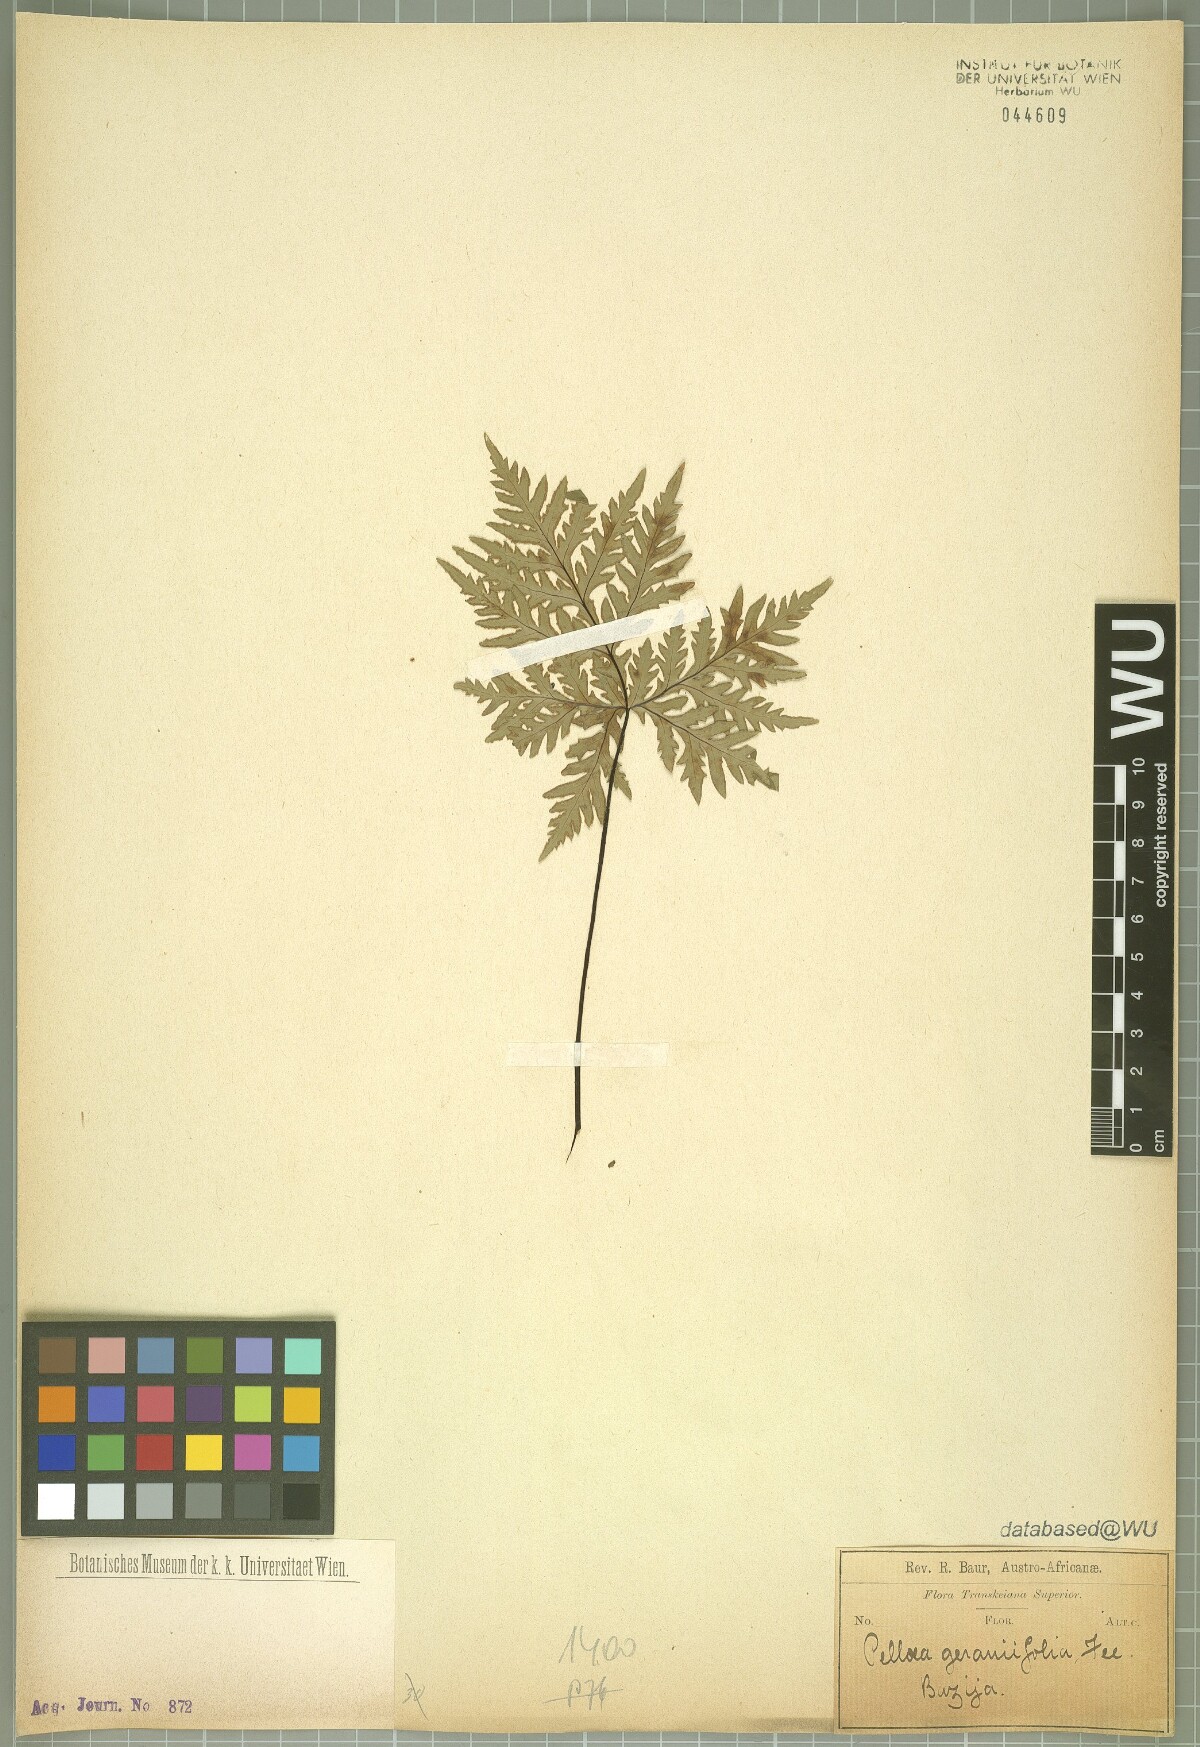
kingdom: Plantae
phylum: Tracheophyta
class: Polypodiopsida
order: Polypodiales
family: Pteridaceae
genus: Doryopteris
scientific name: Doryopteris kirkii
